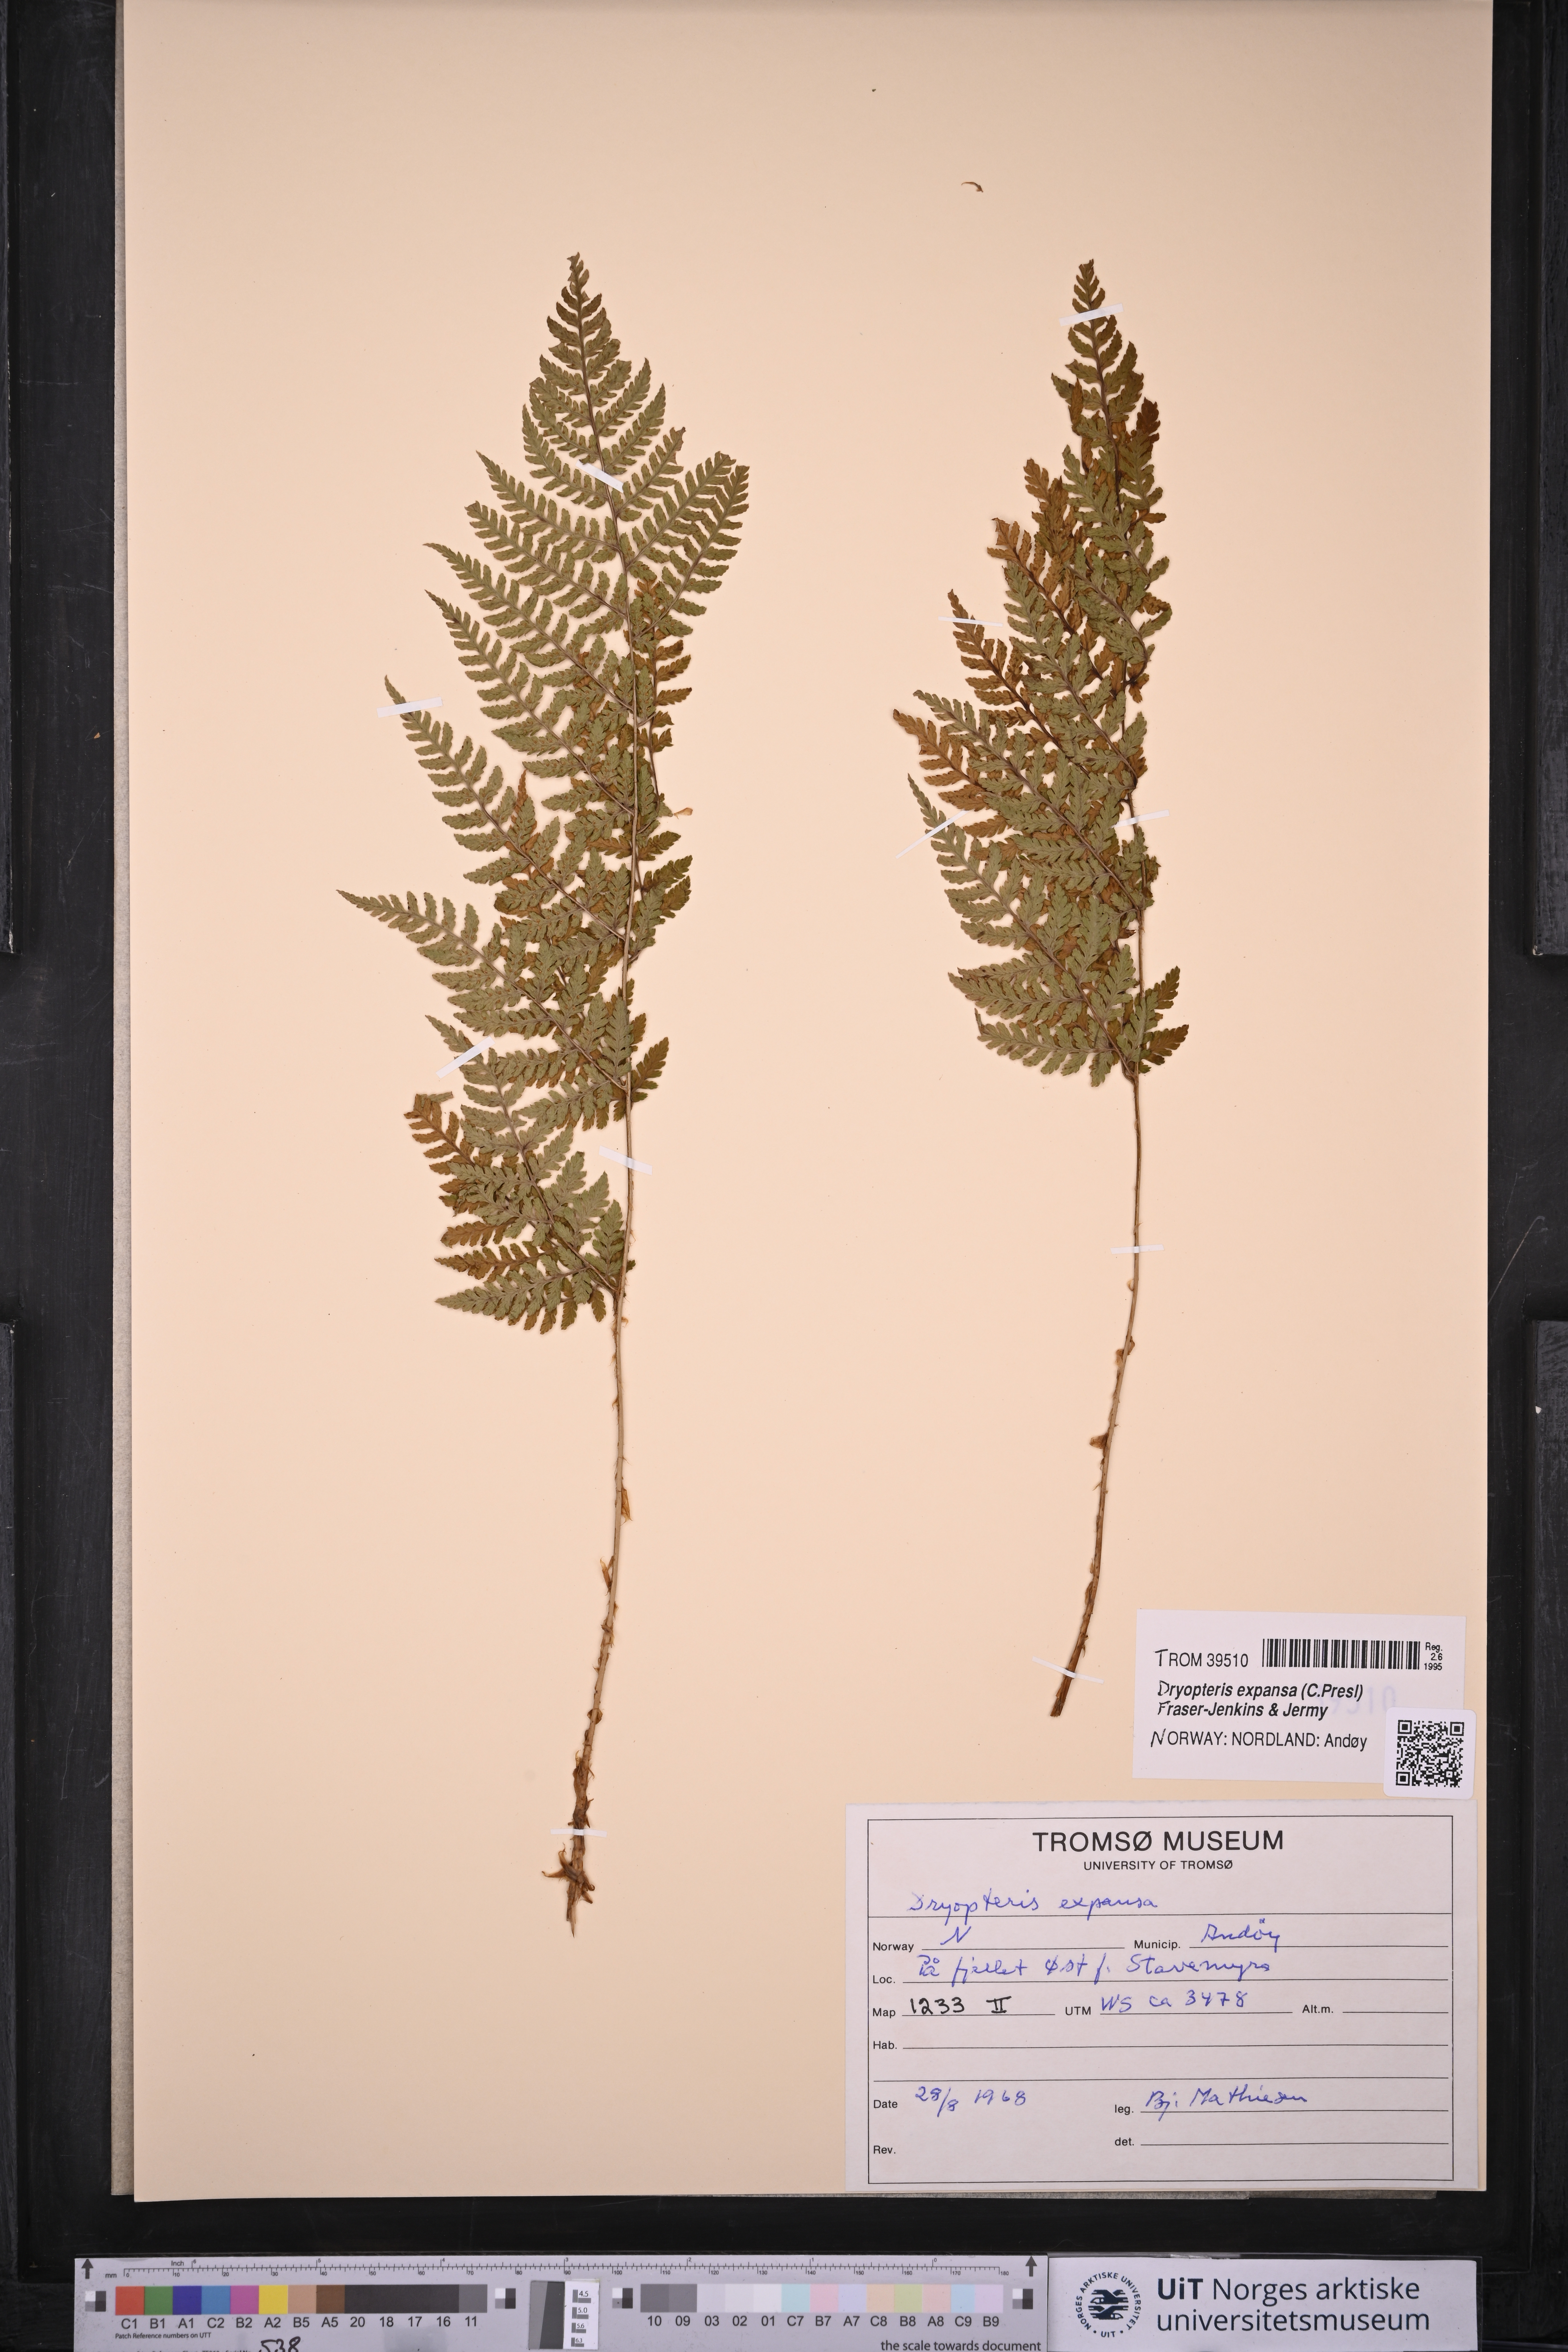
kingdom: Plantae
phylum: Tracheophyta
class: Polypodiopsida
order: Polypodiales
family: Dryopteridaceae
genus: Dryopteris
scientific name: Dryopteris expansa
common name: Northern buckler fern
